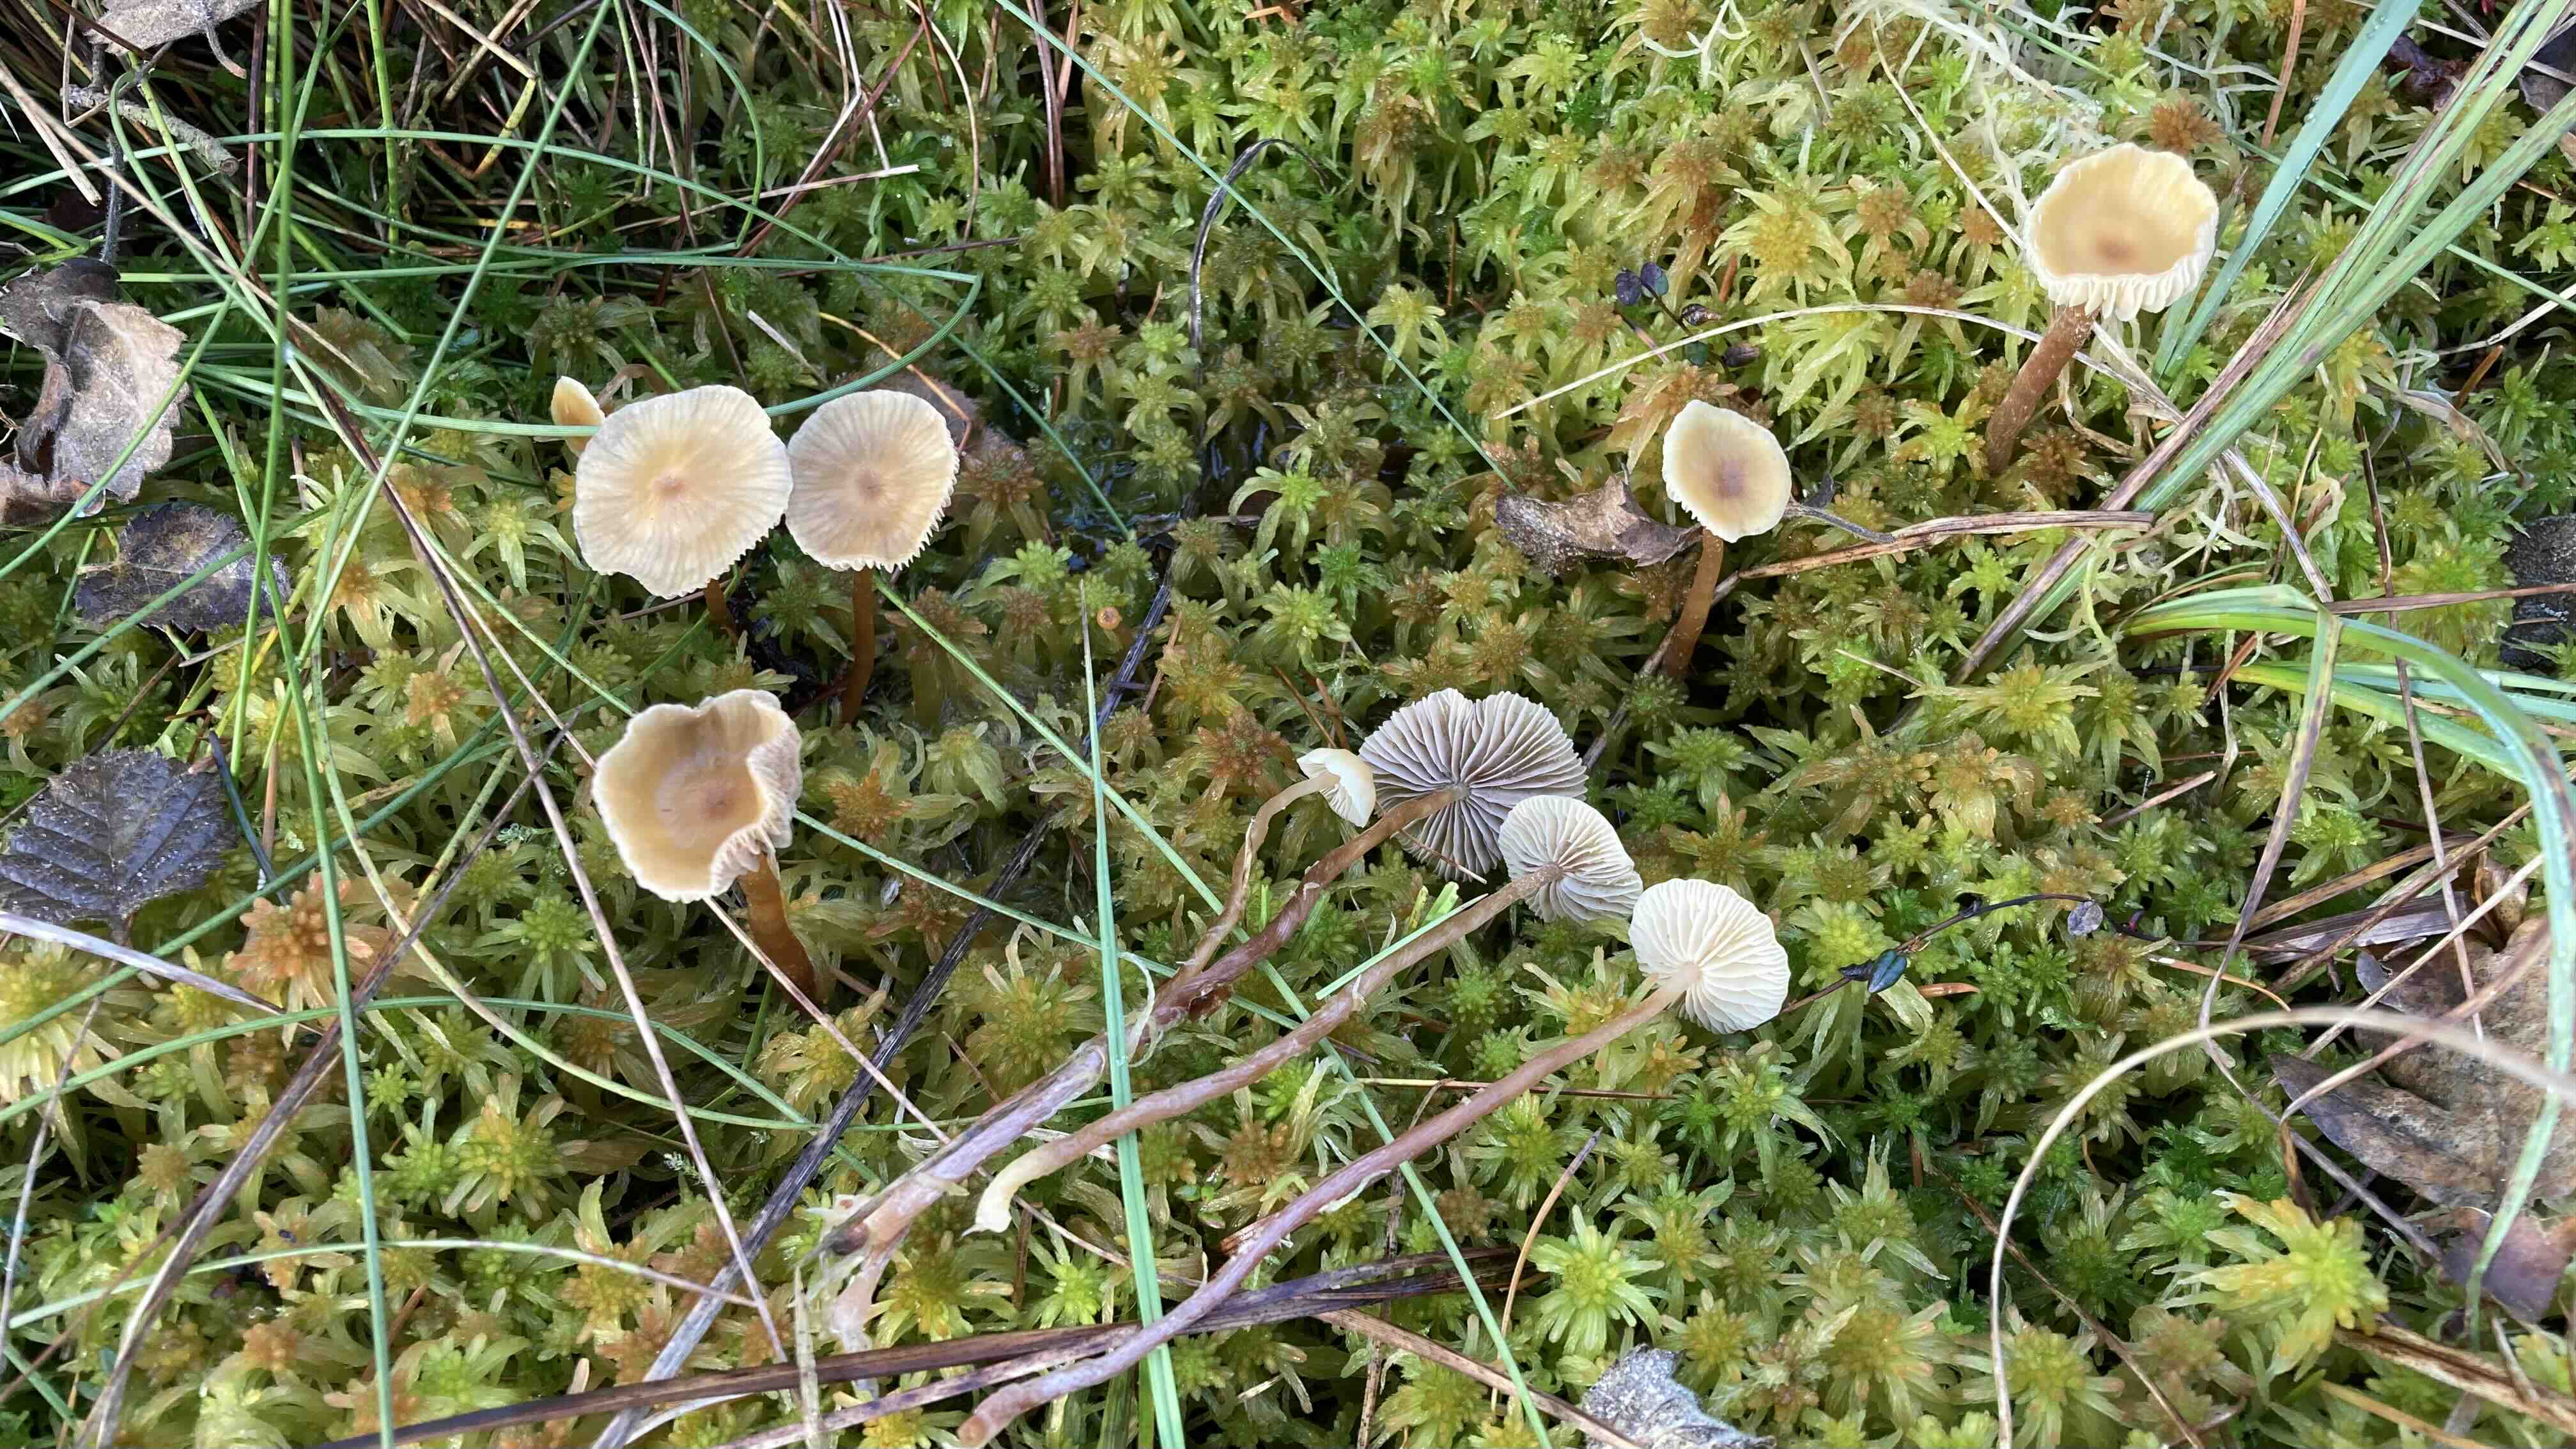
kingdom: Fungi
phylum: Basidiomycota
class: Agaricomycetes
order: Agaricales
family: Strophariaceae
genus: Hypholoma
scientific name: Hypholoma
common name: svovlhat
